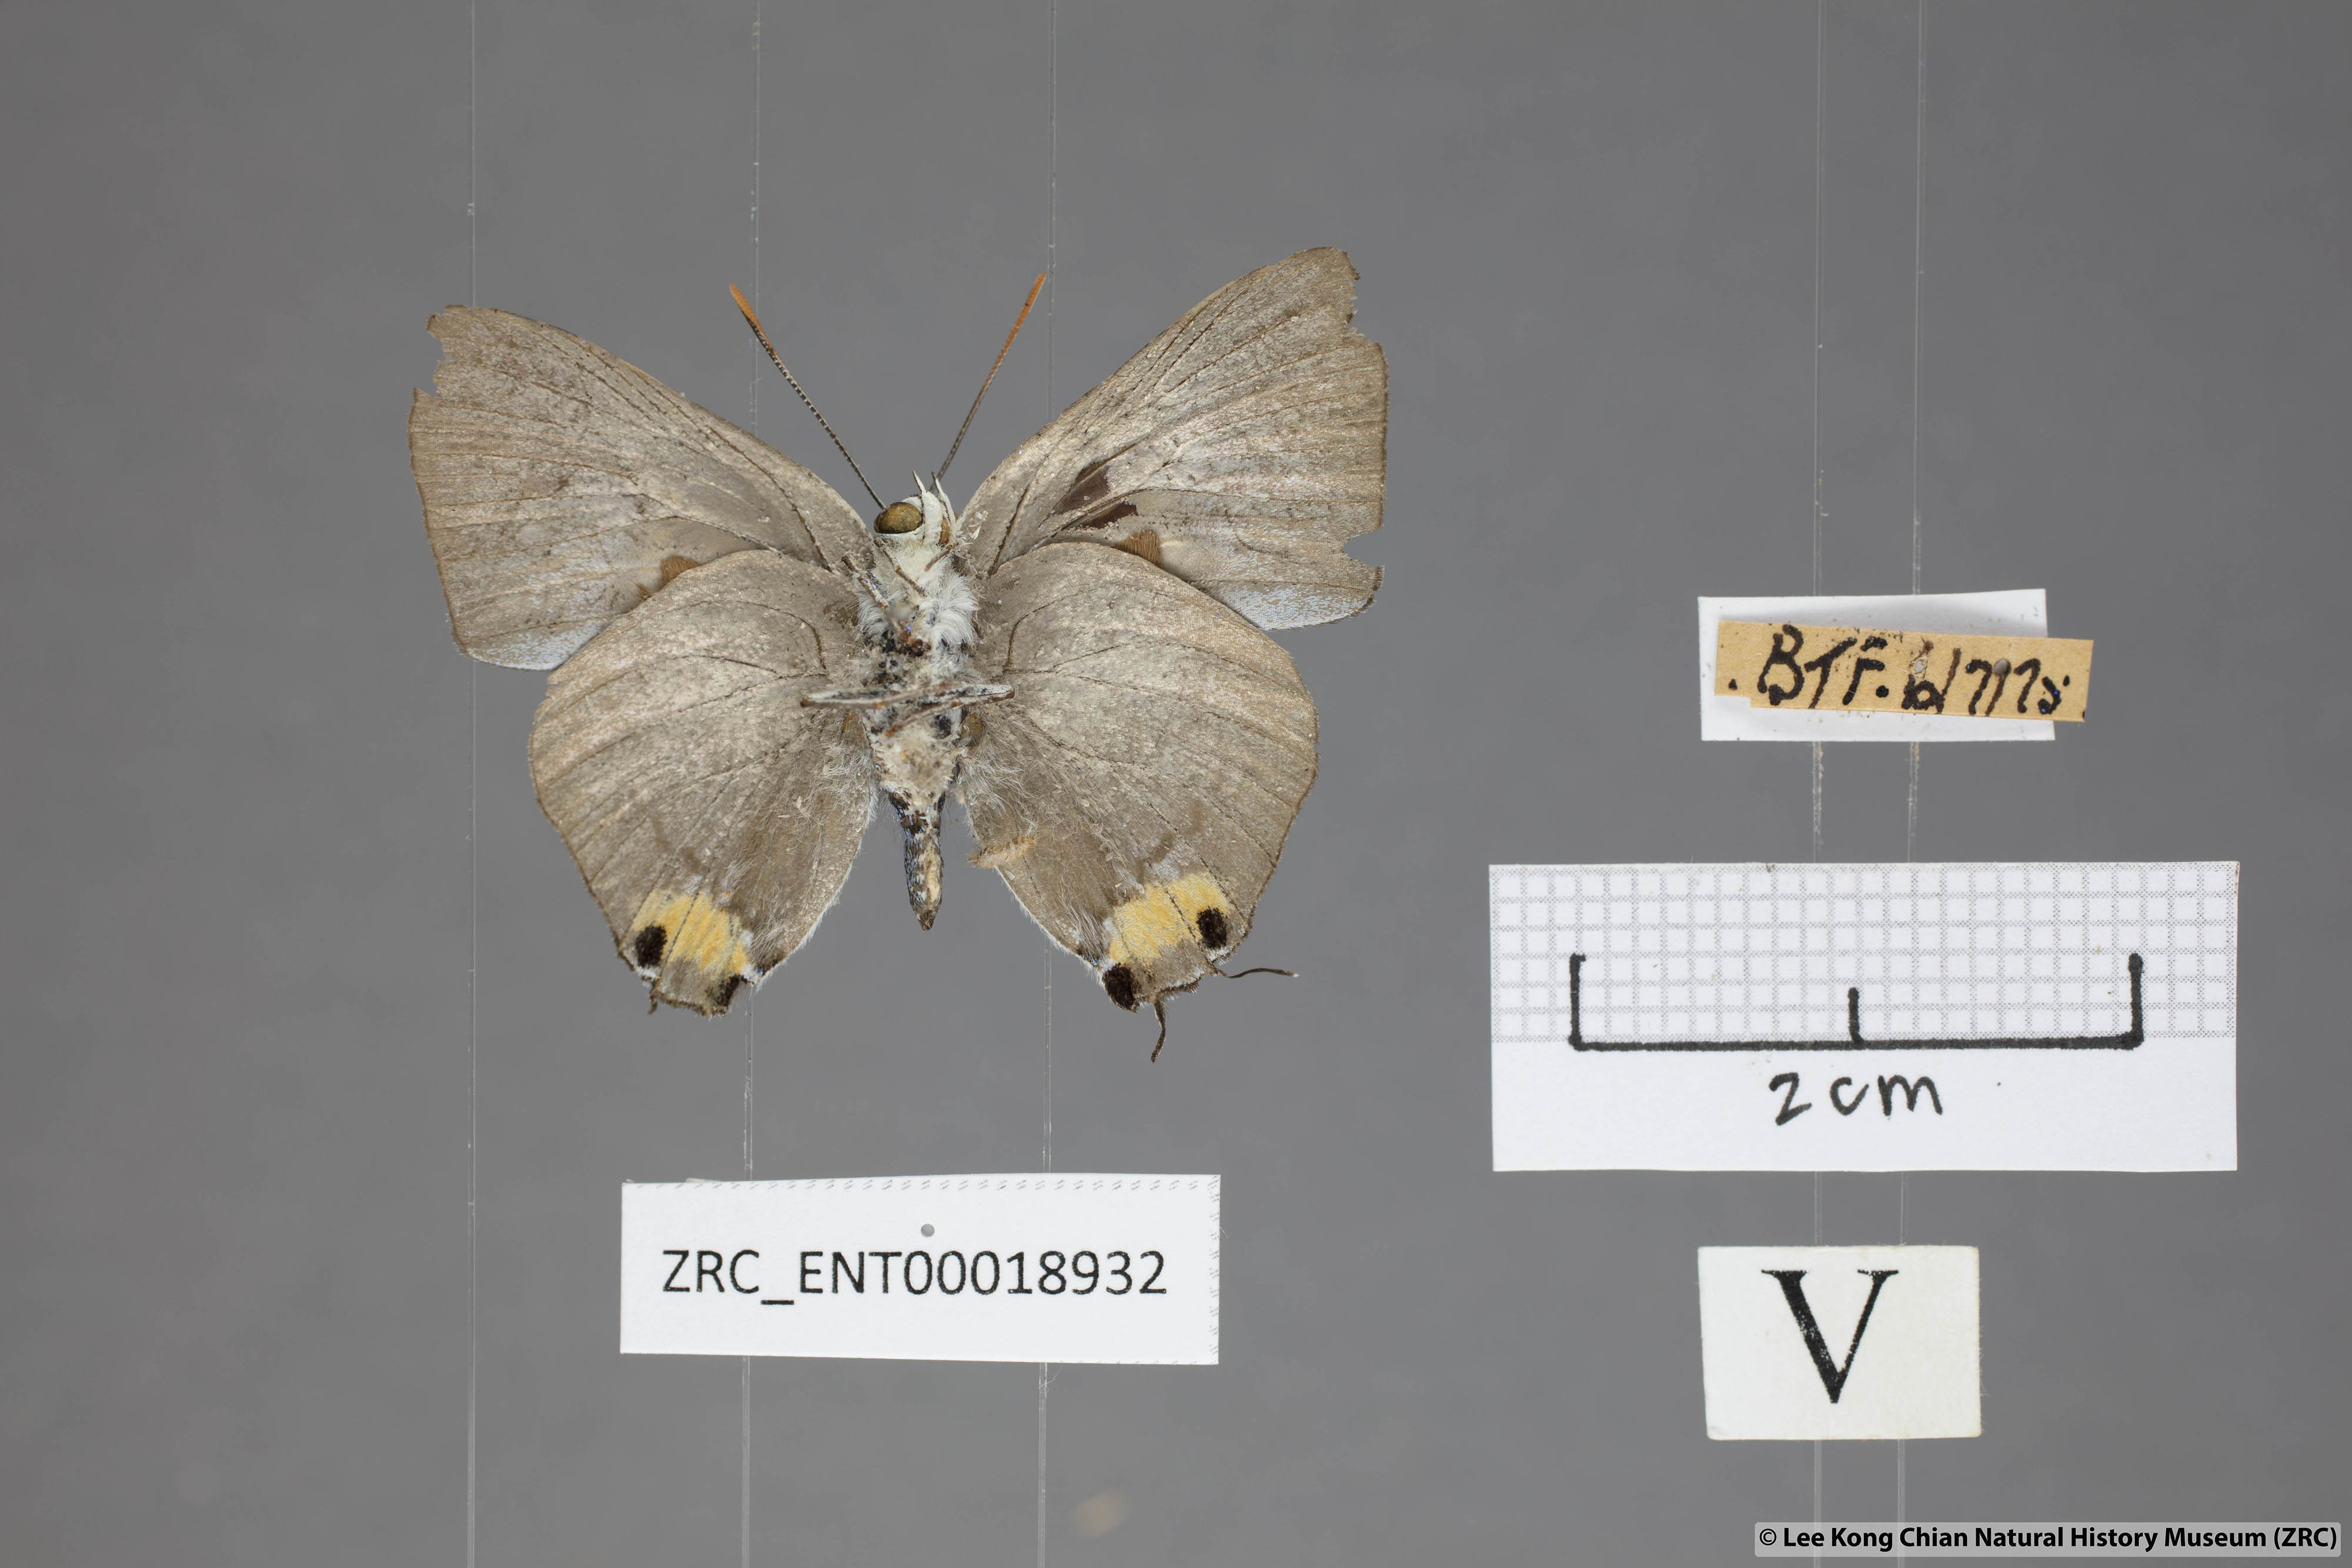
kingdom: Animalia
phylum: Arthropoda
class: Insecta
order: Lepidoptera
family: Lycaenidae
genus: Ancema
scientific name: Ancema blanka
